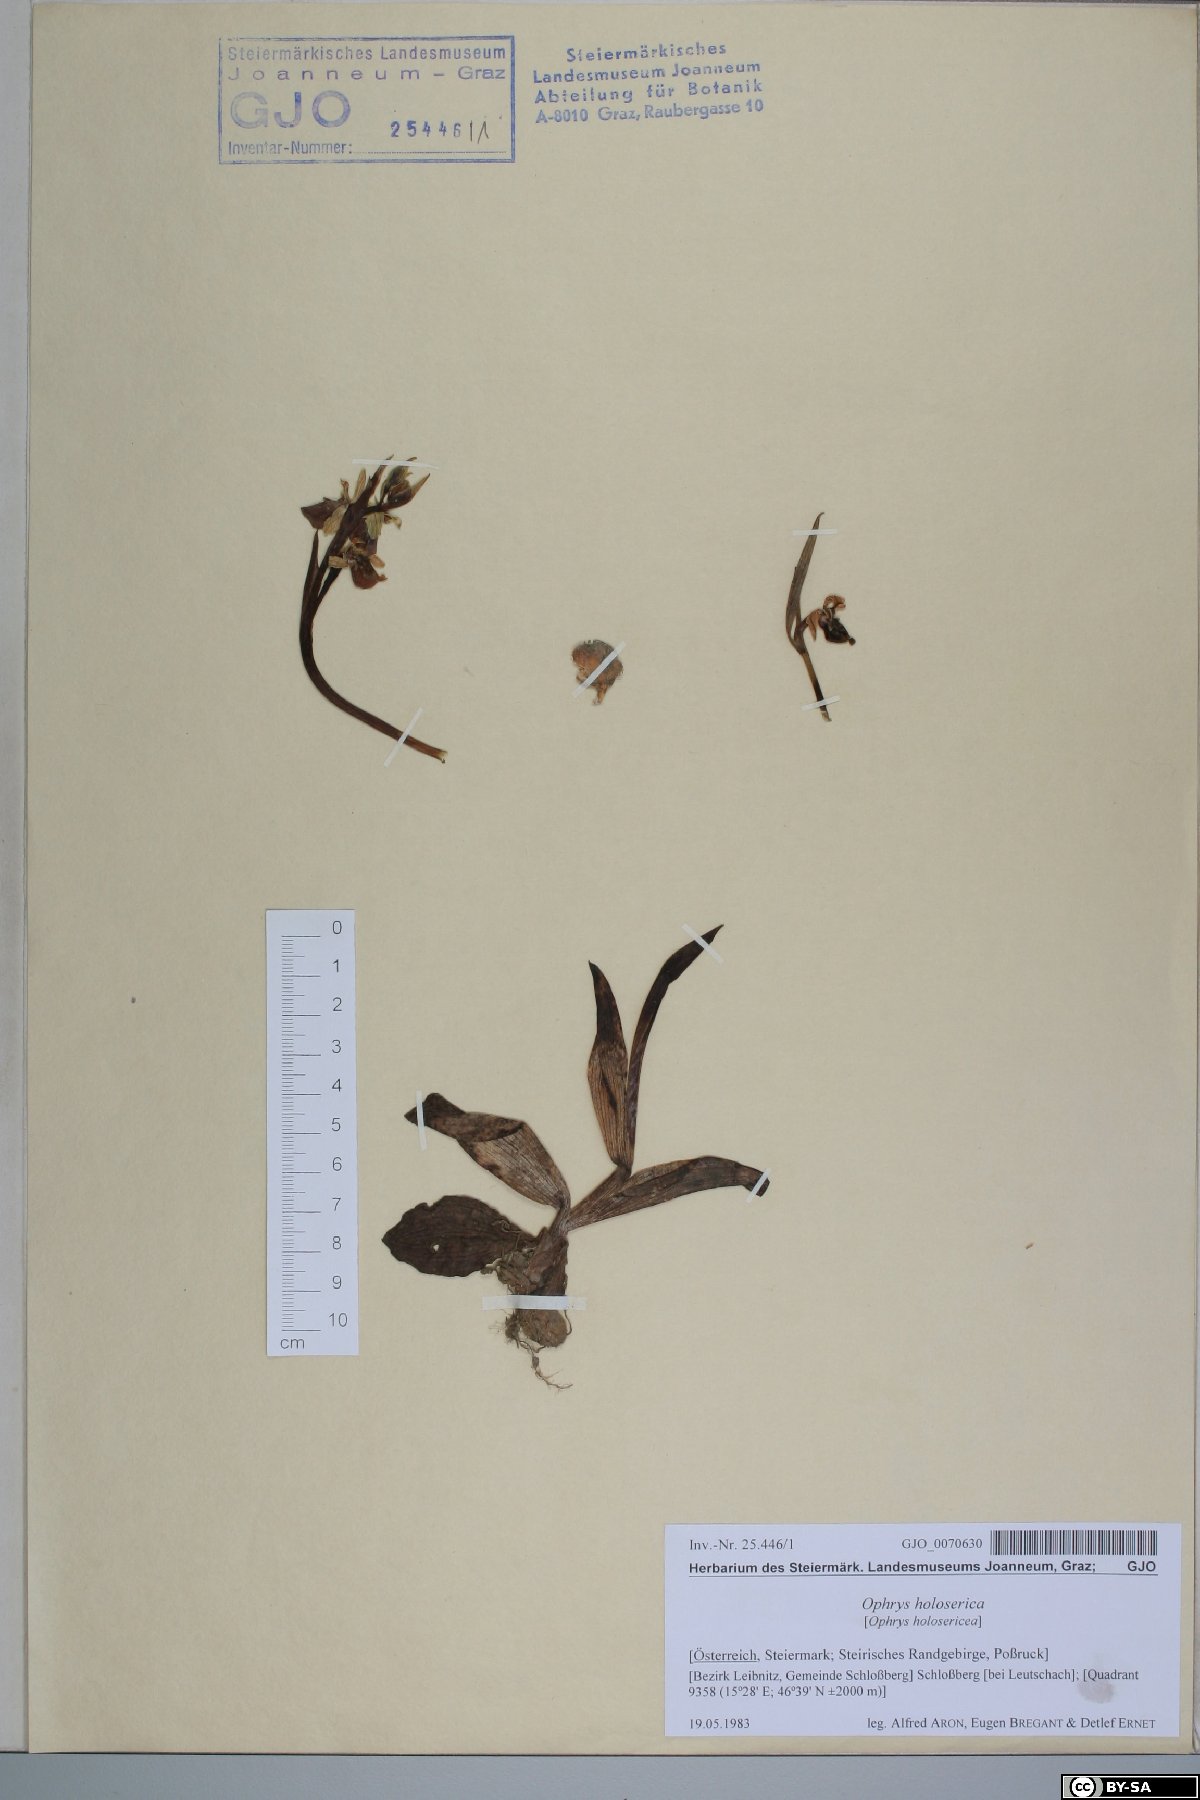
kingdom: Plantae
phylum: Tracheophyta
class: Liliopsida
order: Asparagales
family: Orchidaceae
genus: Ophrys
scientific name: Ophrys holosericea
